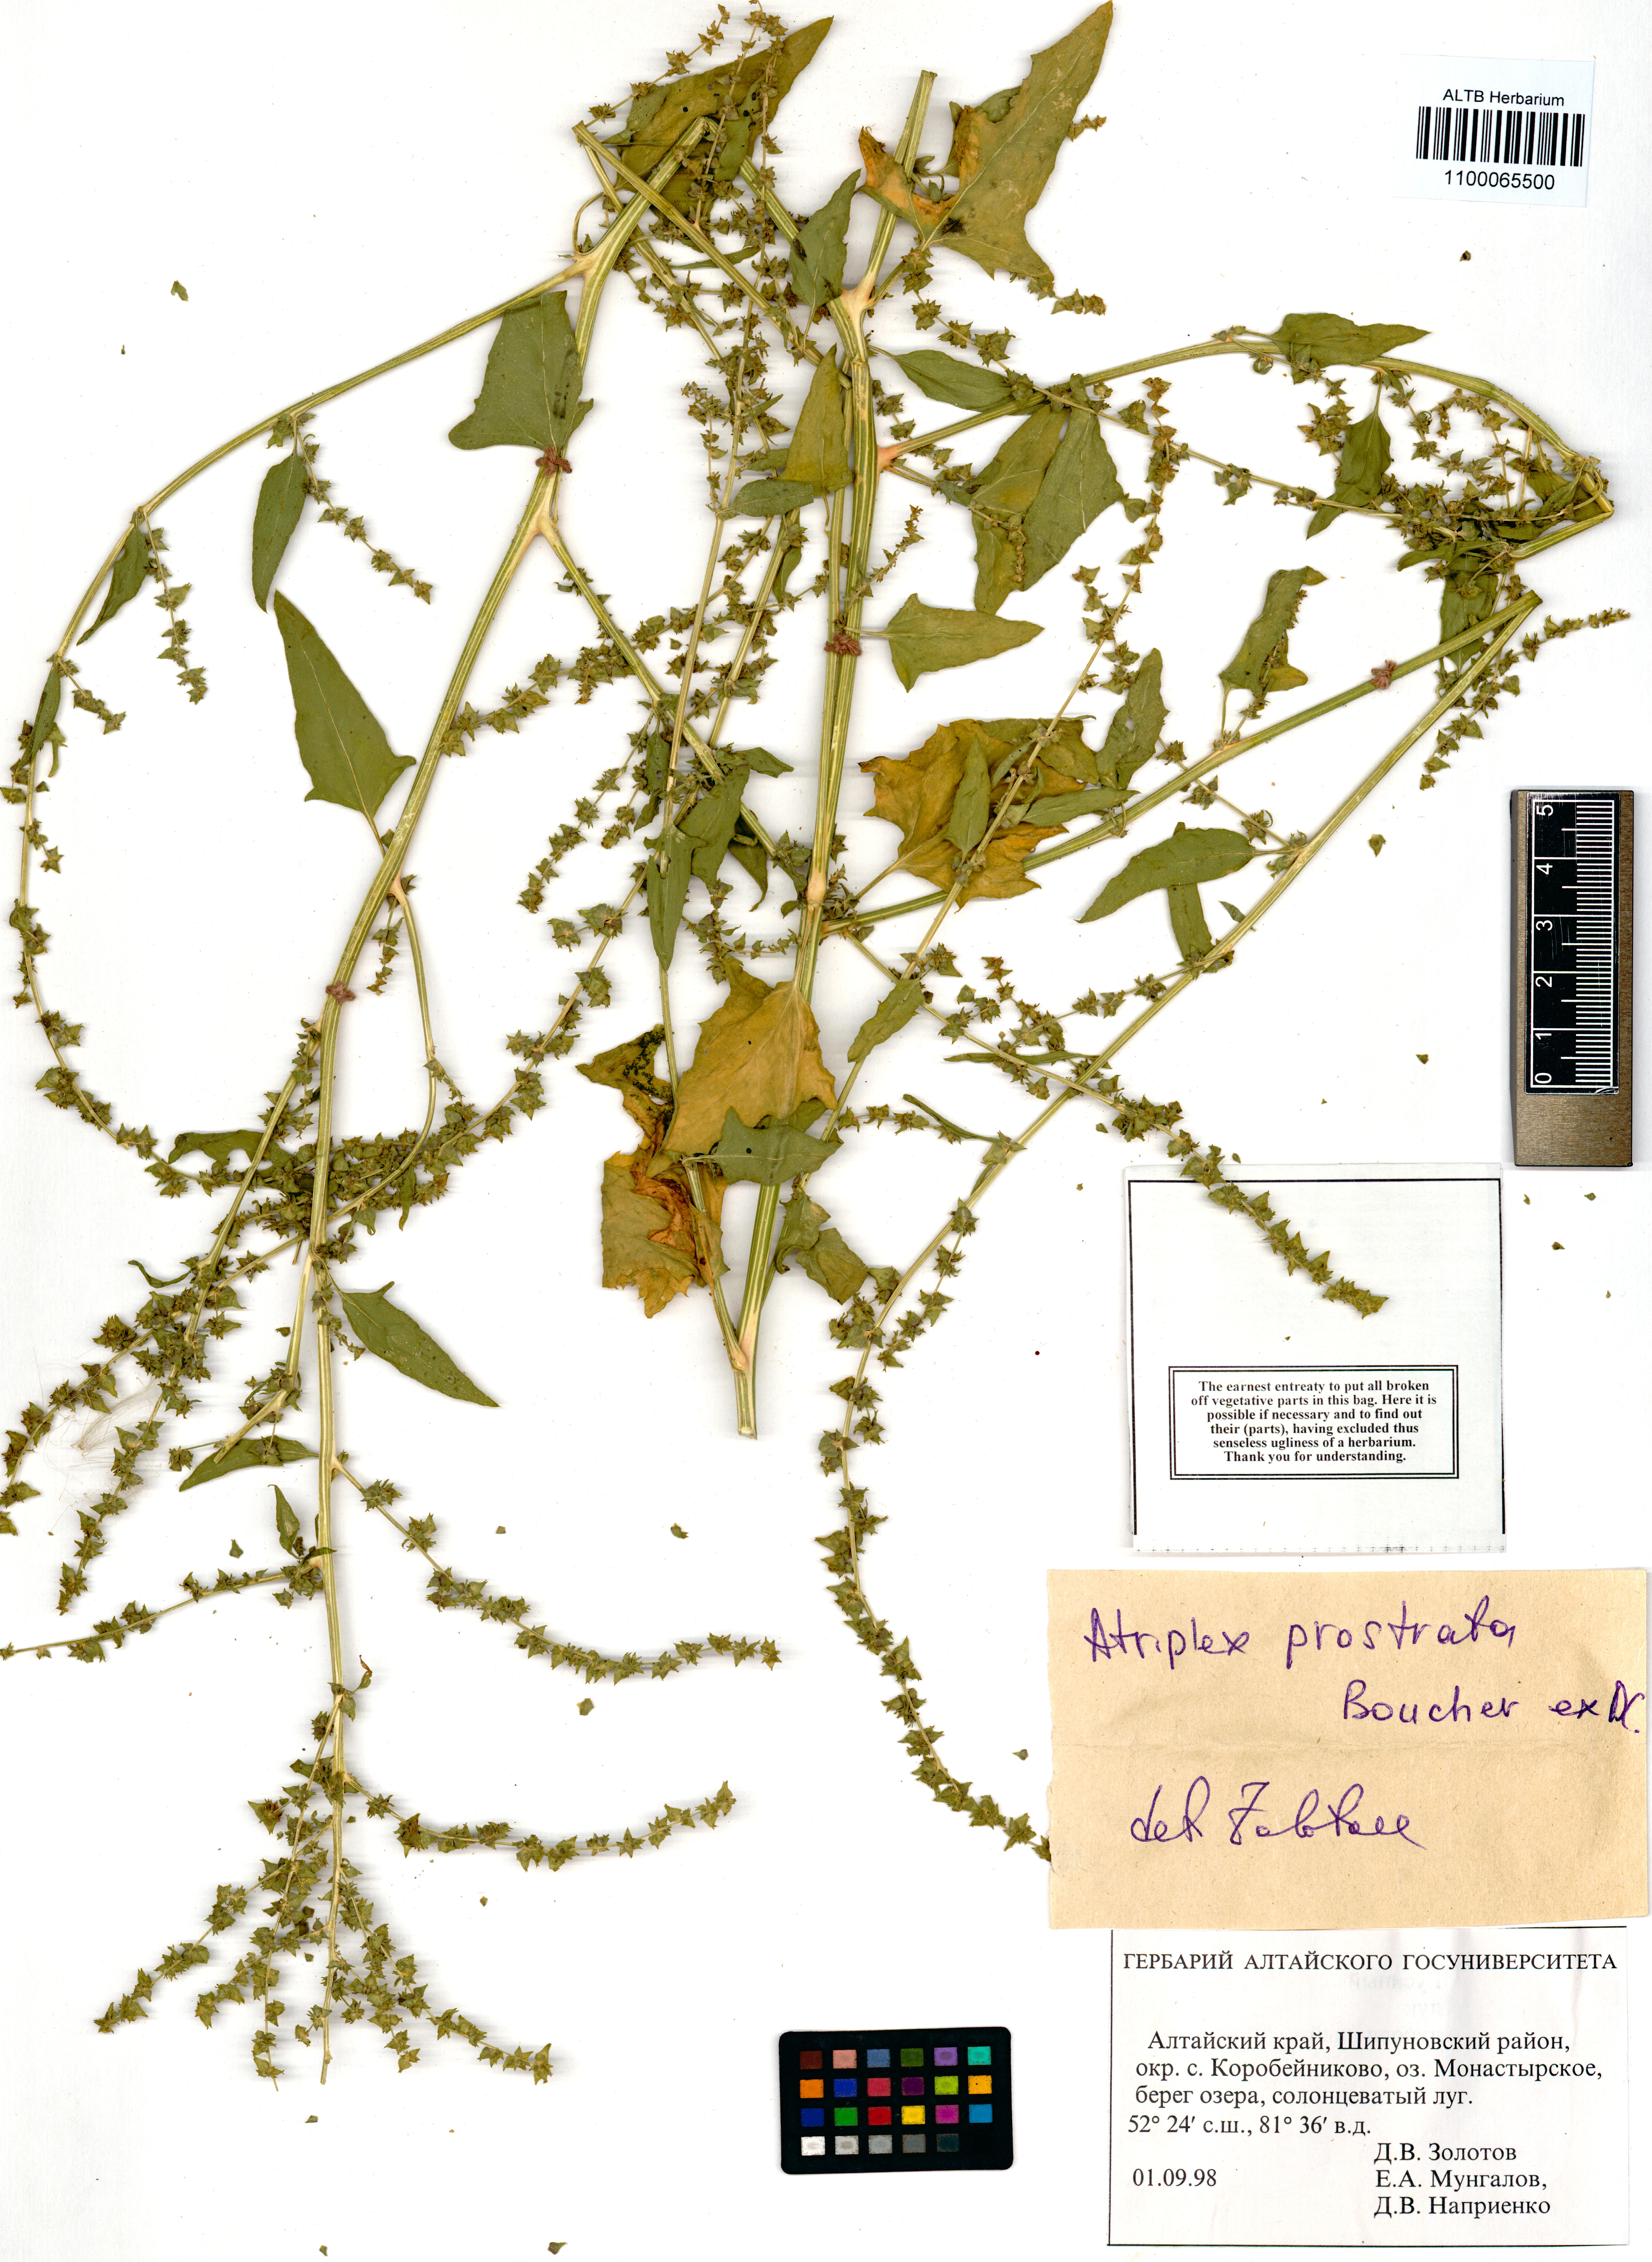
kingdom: Plantae
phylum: Tracheophyta
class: Magnoliopsida
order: Caryophyllales
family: Amaranthaceae
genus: Atriplex
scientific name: Atriplex prostrata
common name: Spear-leaved orache
